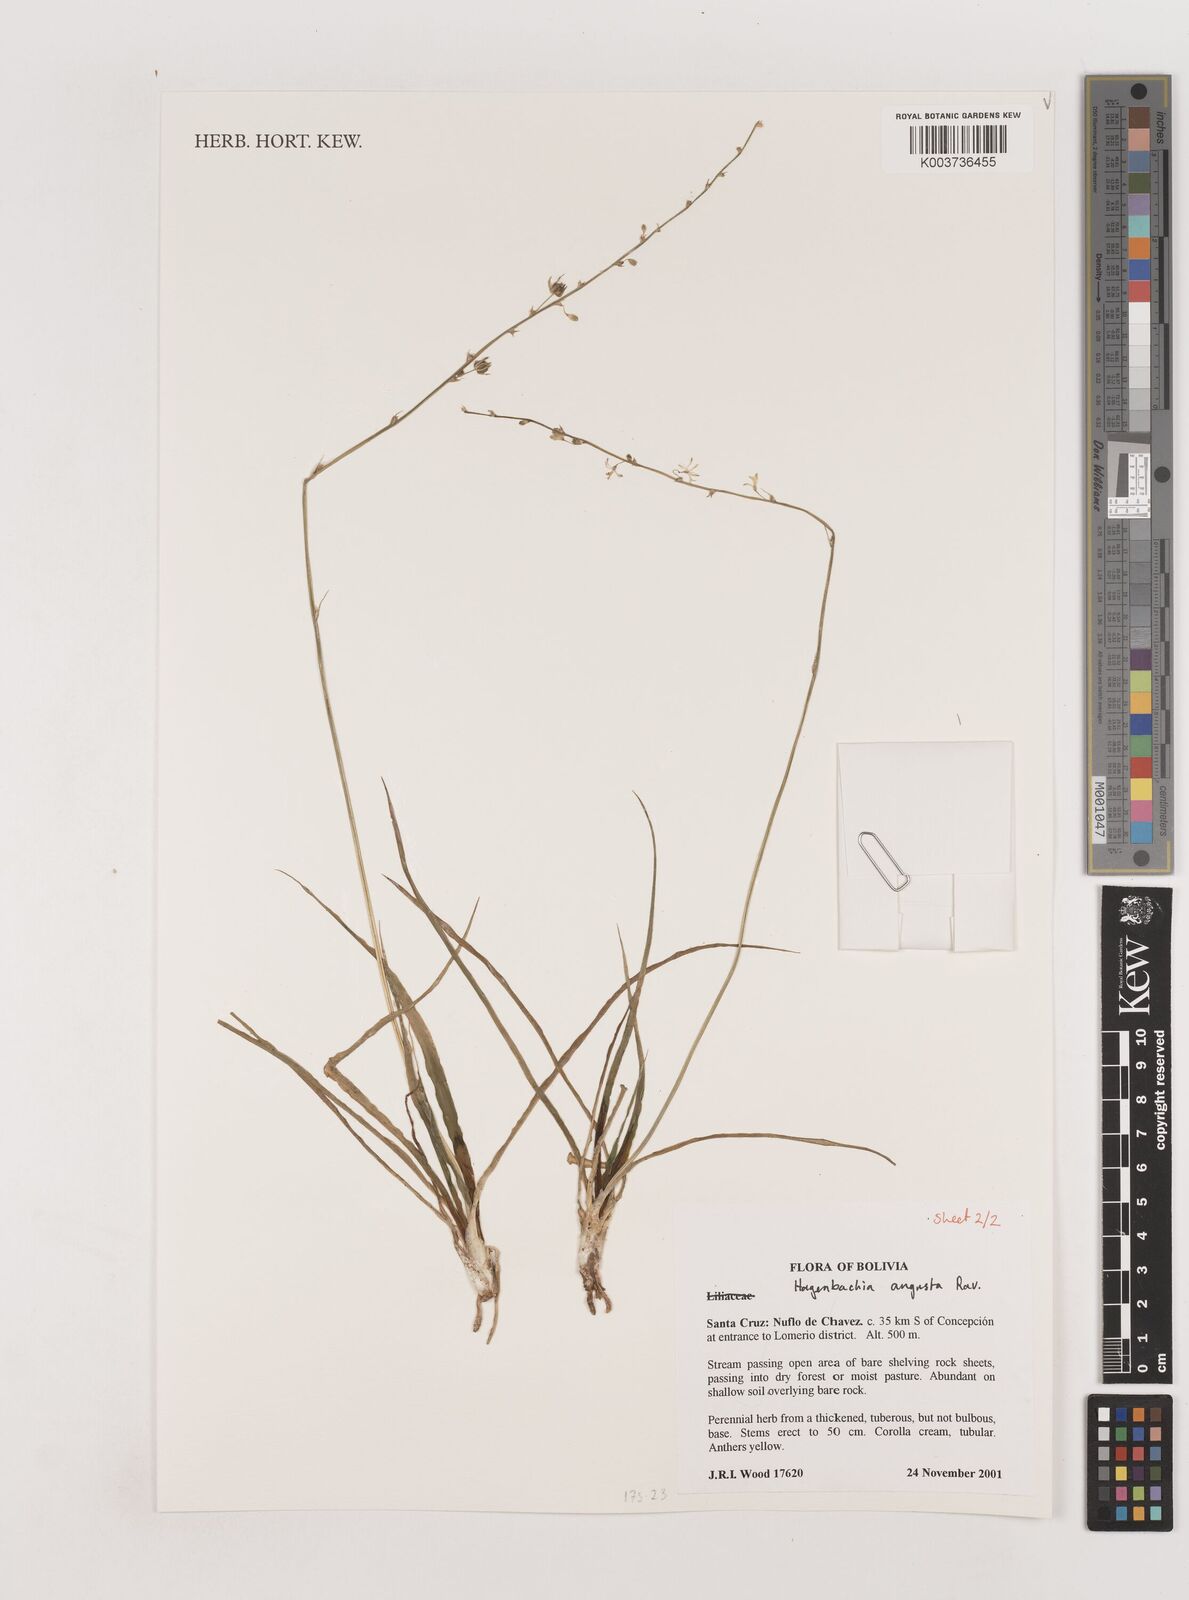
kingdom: Plantae
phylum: Tracheophyta
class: Liliopsida
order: Asparagales
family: Asparagaceae
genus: Hagenbachia
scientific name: Hagenbachia matogrossensis
